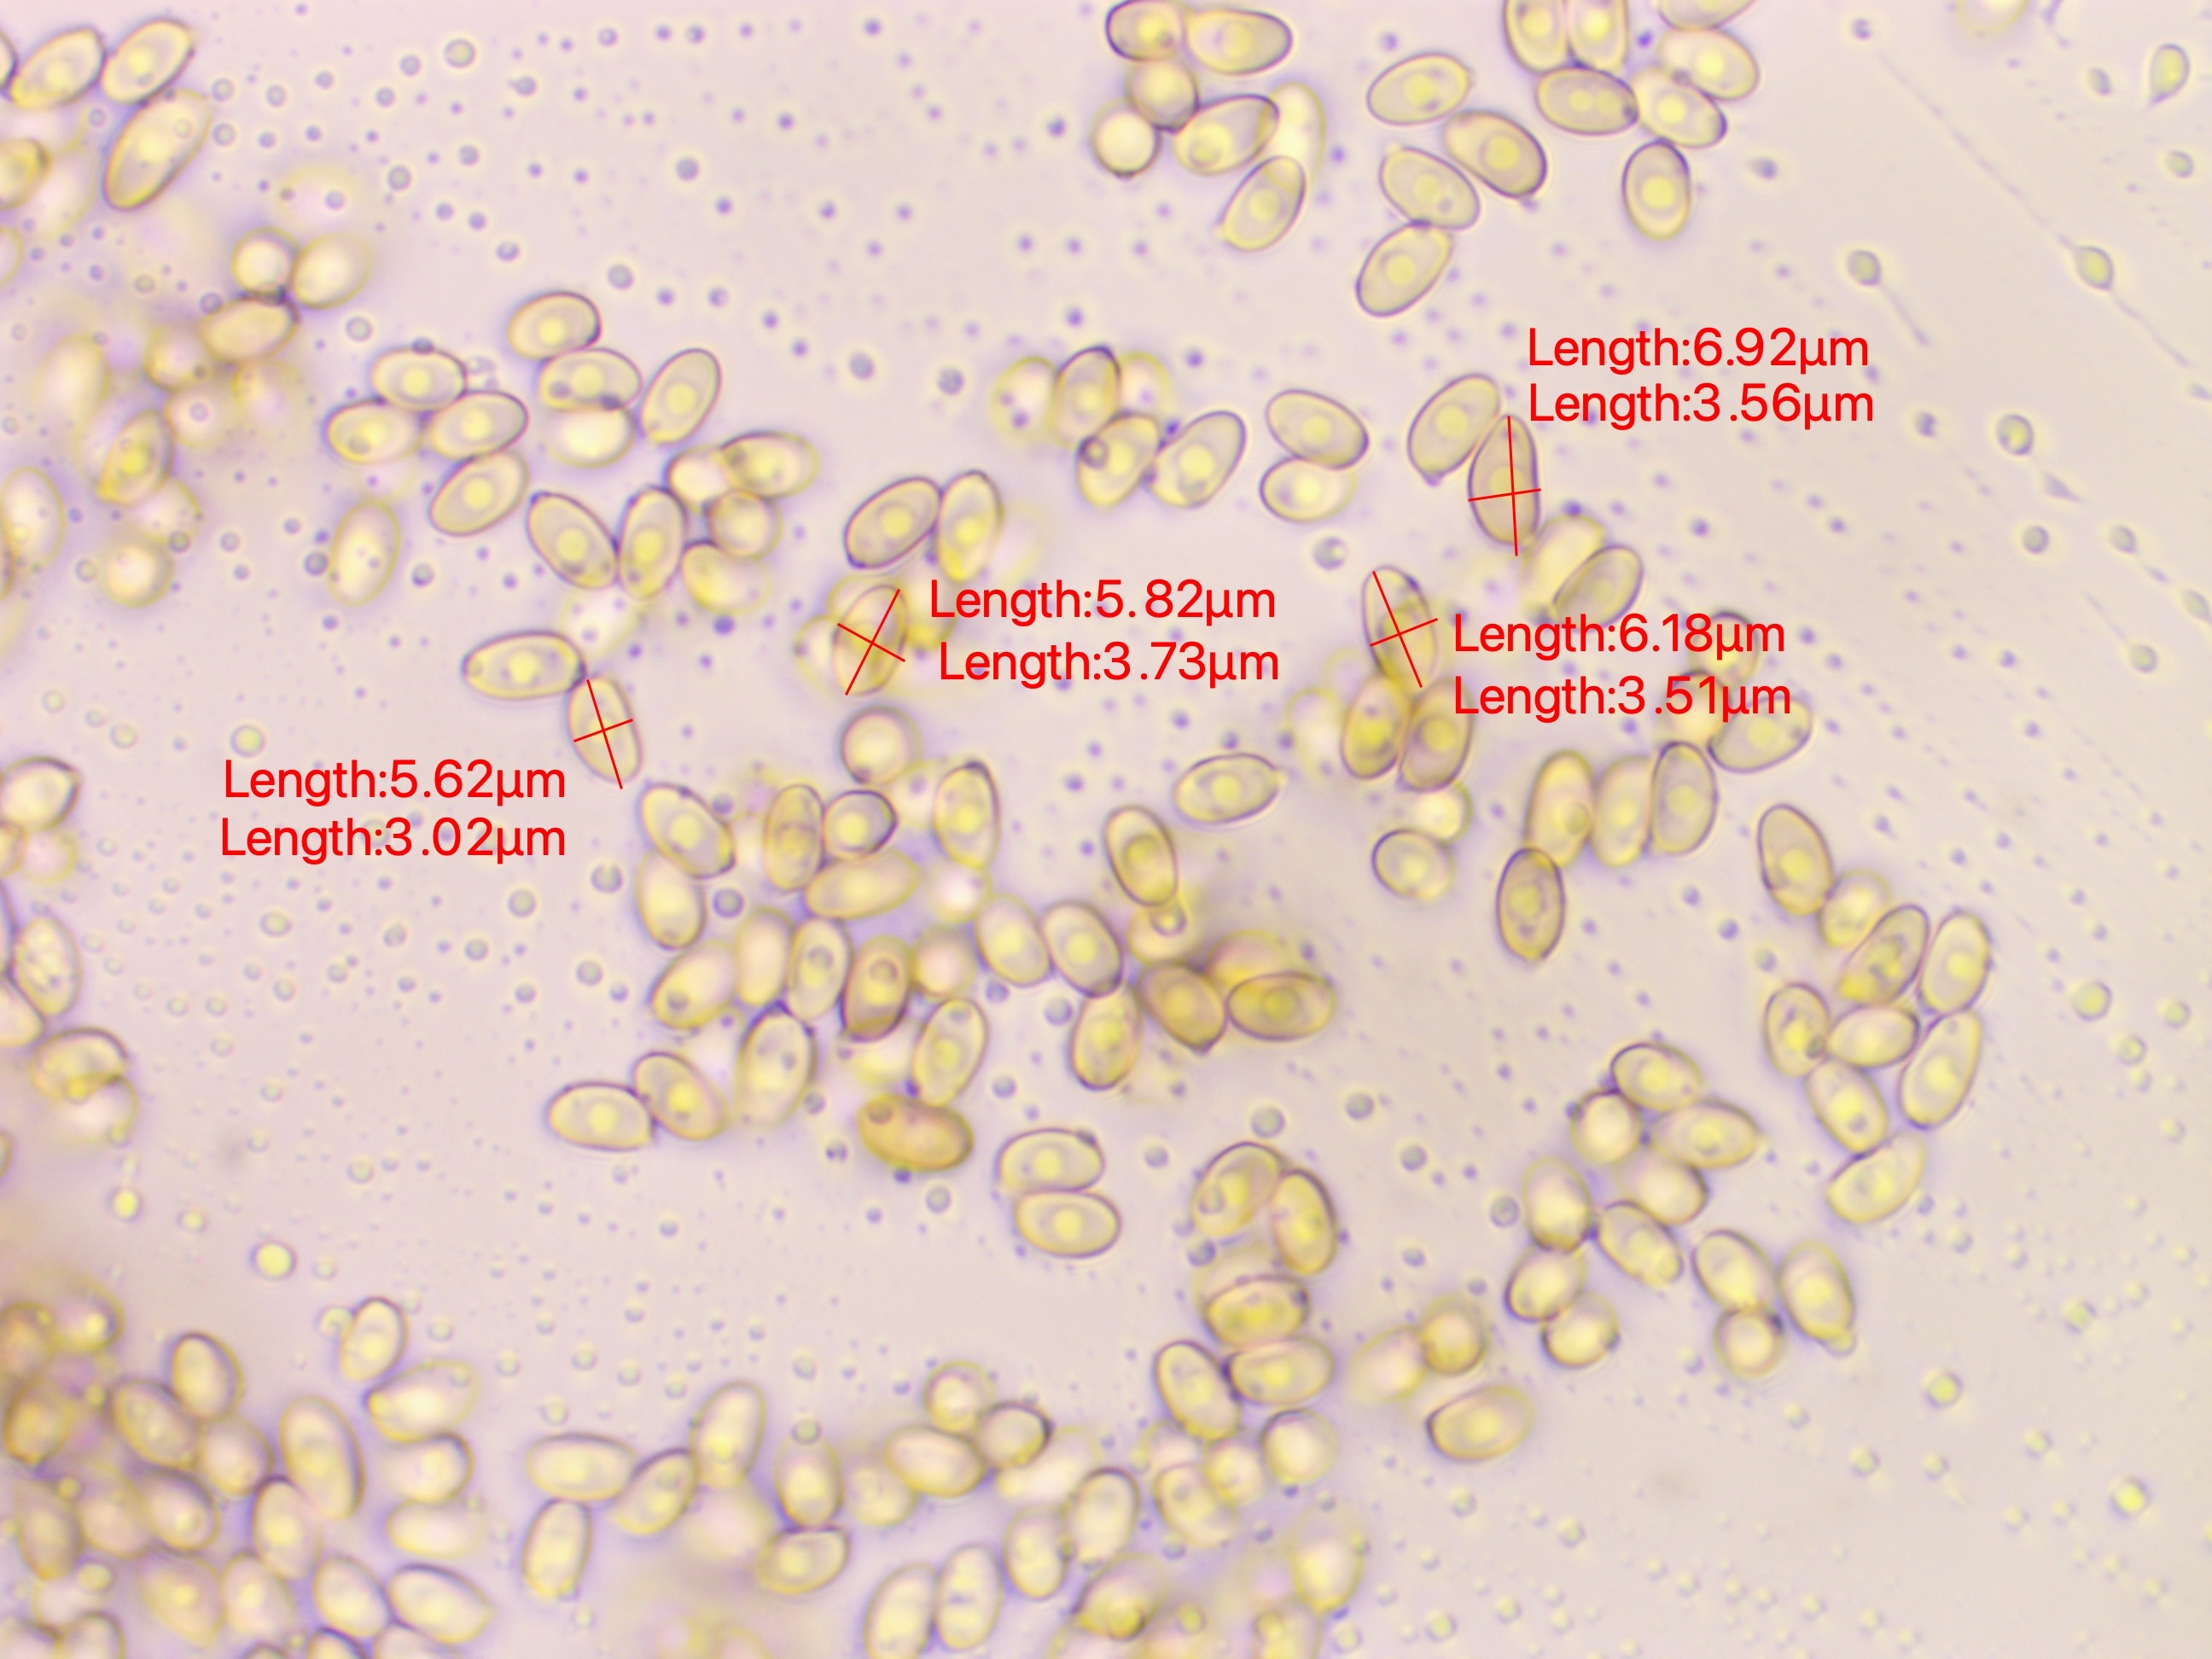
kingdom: Fungi
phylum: Basidiomycota
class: Agaricomycetes
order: Agaricales
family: Agaricaceae
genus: Agaricus
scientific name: Agaricus impudicus
